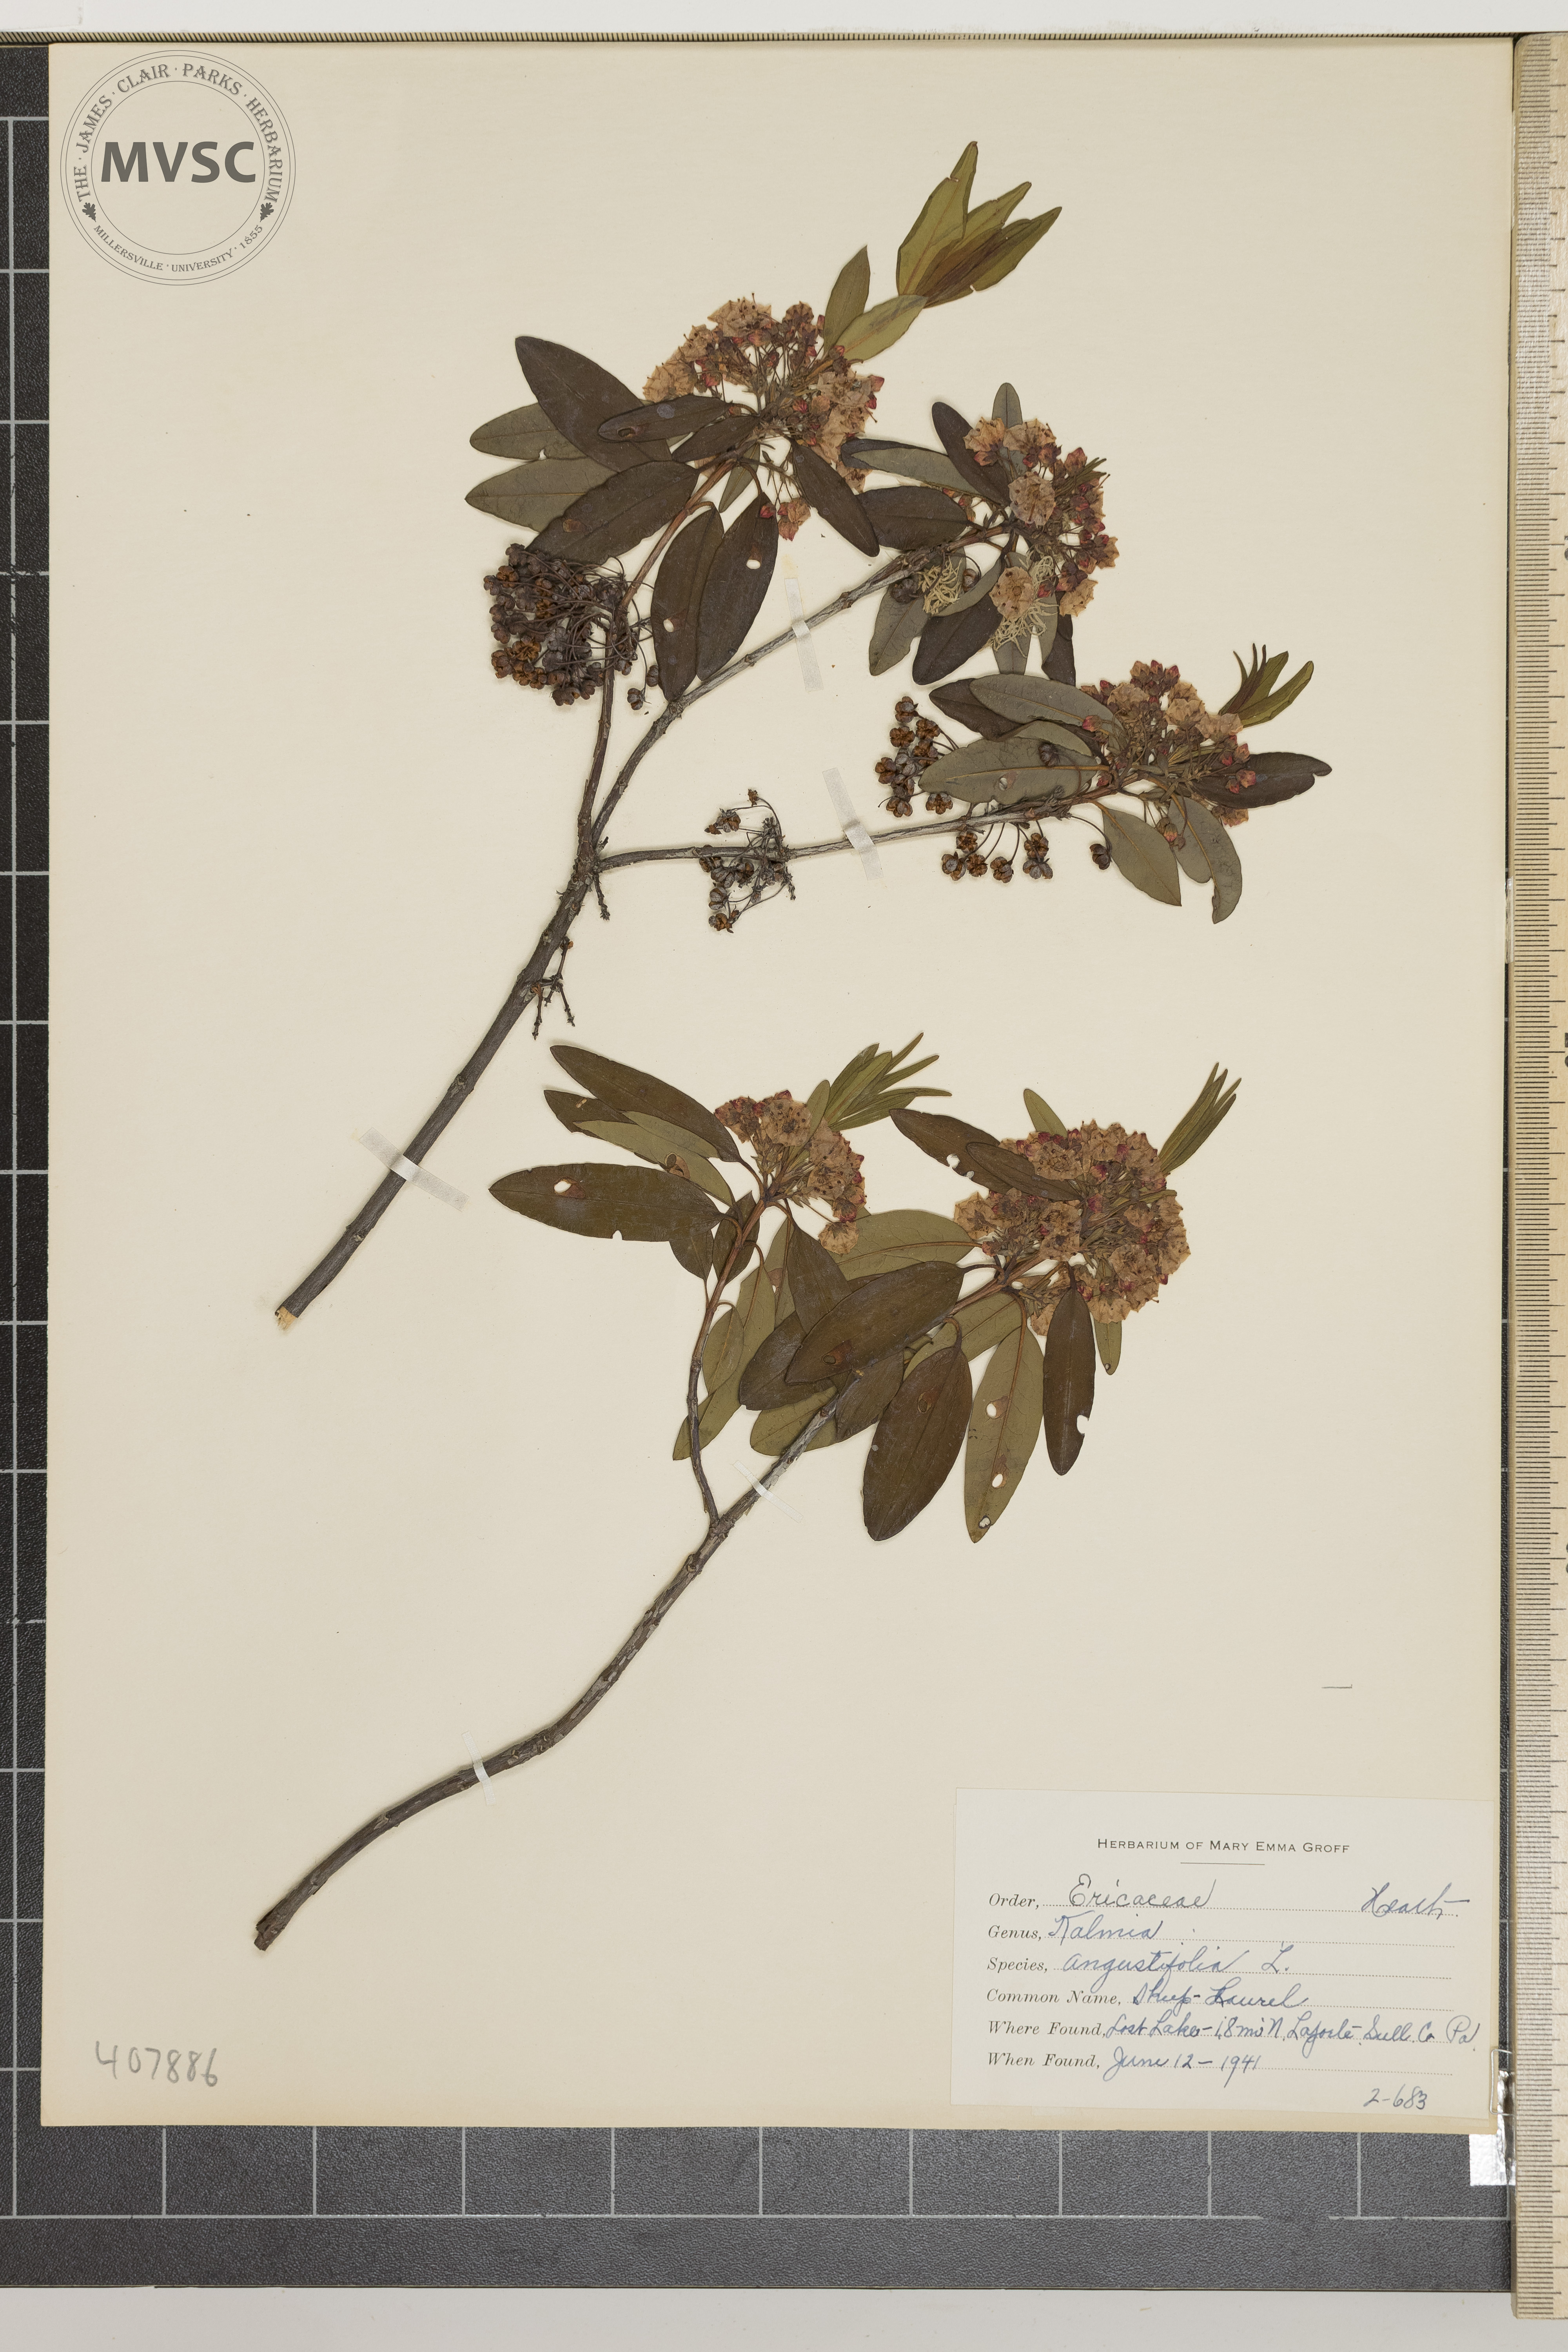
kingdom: Plantae
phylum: Tracheophyta
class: Magnoliopsida
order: Ericales
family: Ericaceae
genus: Kalmia
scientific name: Kalmia angustifolia
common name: sheep laurel
